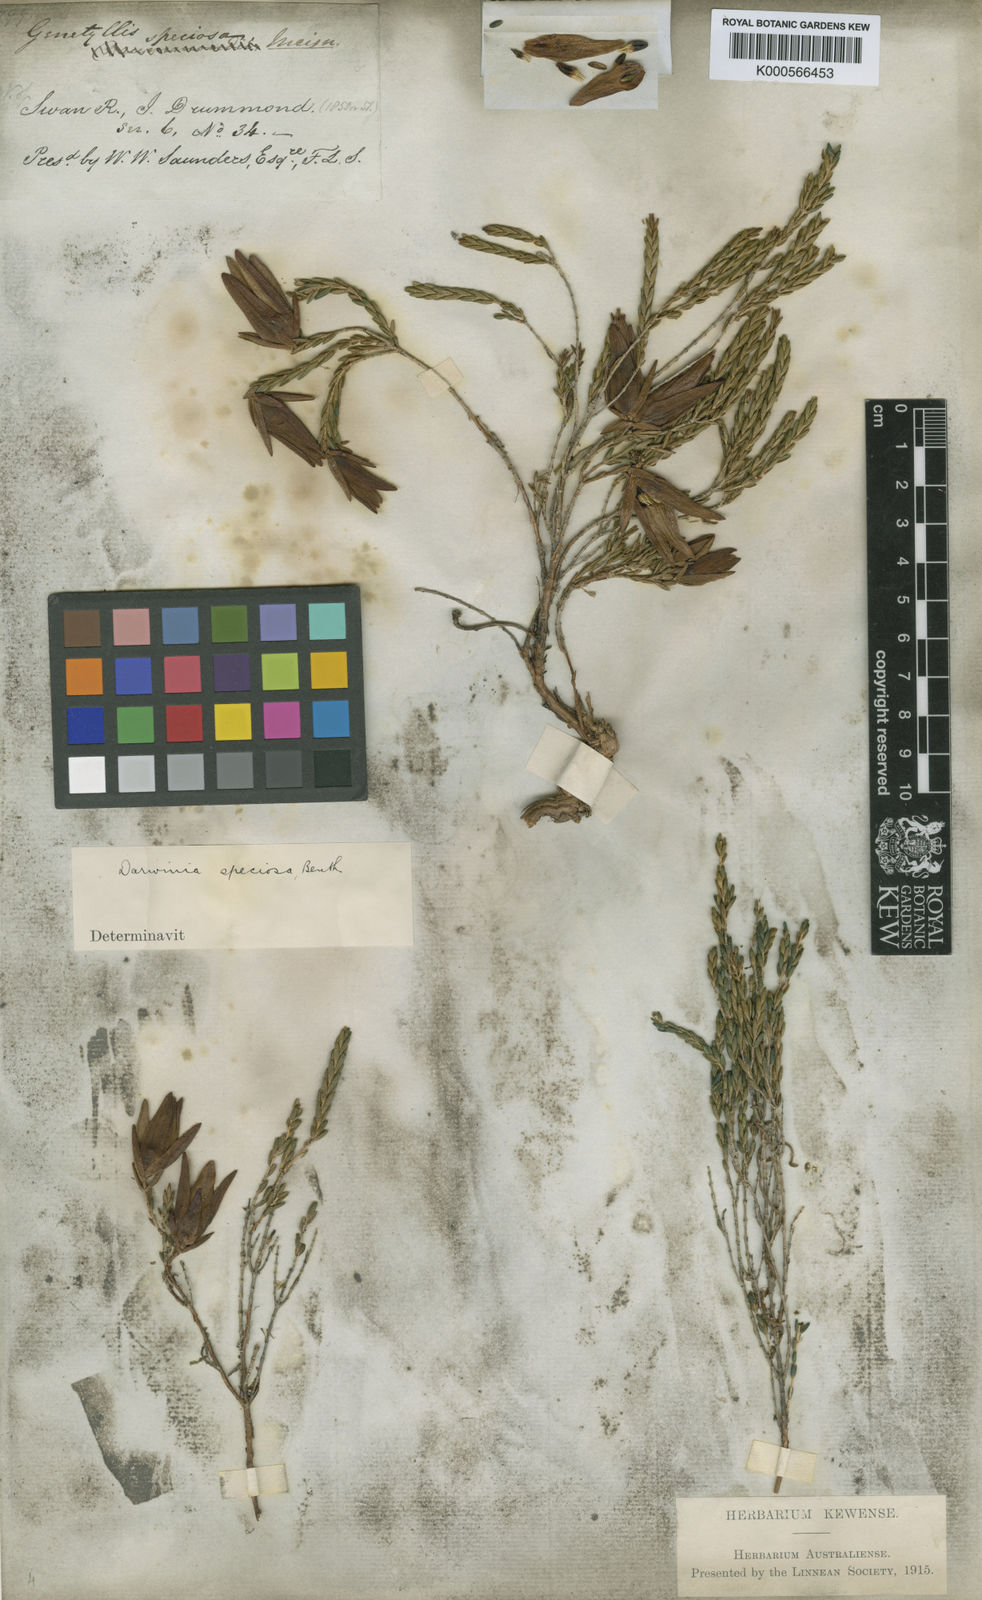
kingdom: Plantae
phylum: Tracheophyta
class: Magnoliopsida
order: Myrtales
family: Myrtaceae
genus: Darwinia
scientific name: Darwinia speciosa
